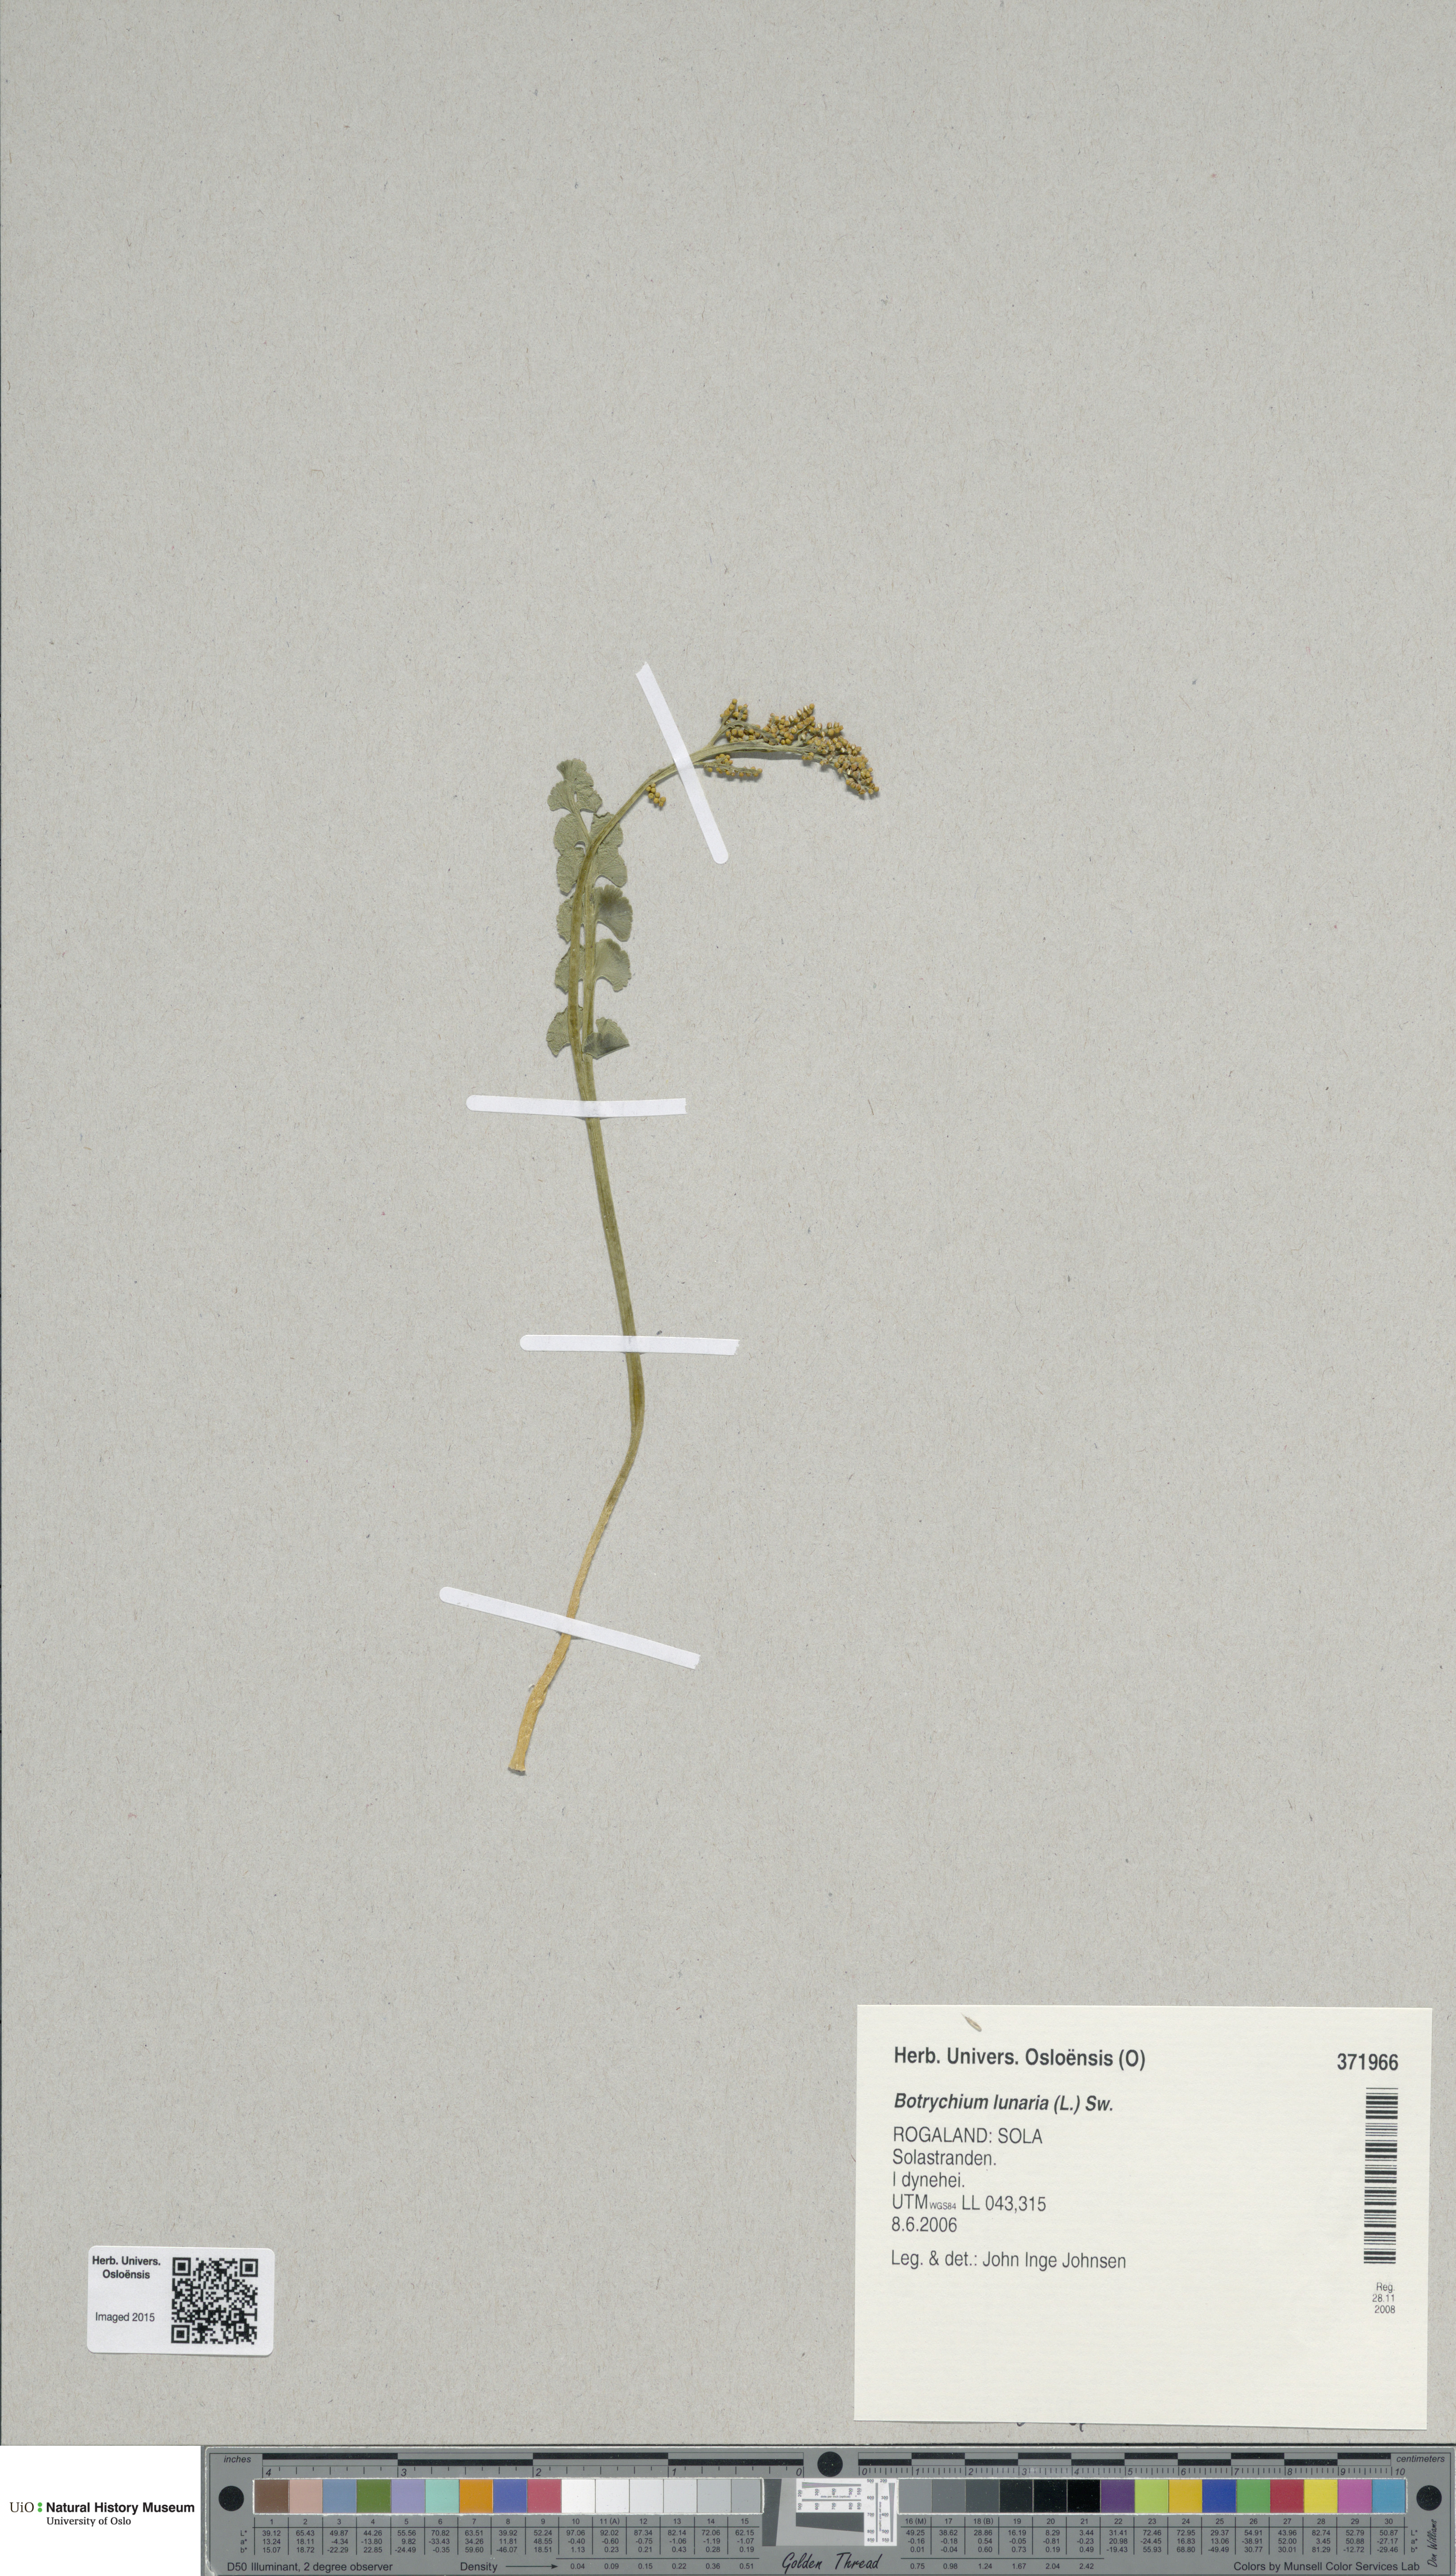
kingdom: Plantae
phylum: Tracheophyta
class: Polypodiopsida
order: Ophioglossales
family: Ophioglossaceae
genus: Botrychium
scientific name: Botrychium lunaria
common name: Moonwort
